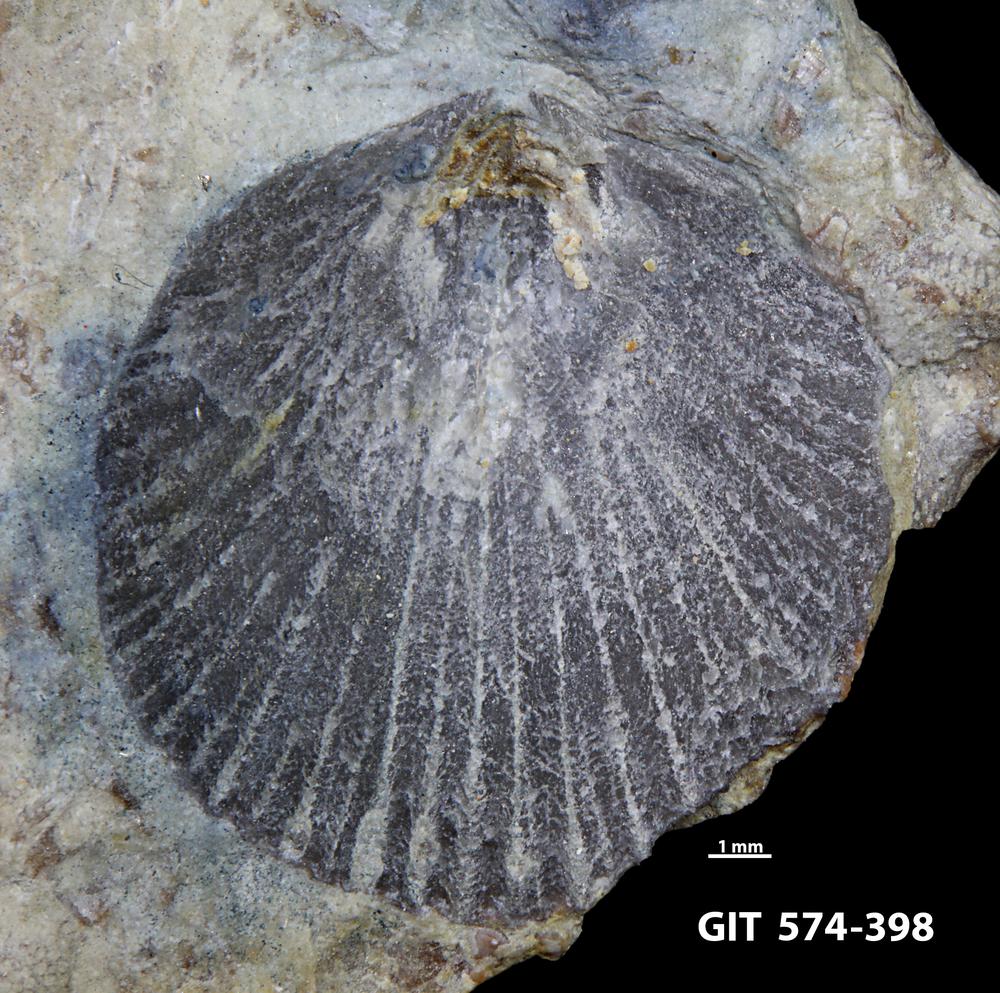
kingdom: Animalia
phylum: Brachiopoda
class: Rhynchonellata
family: Atrypinidae
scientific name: Atrypinidae
